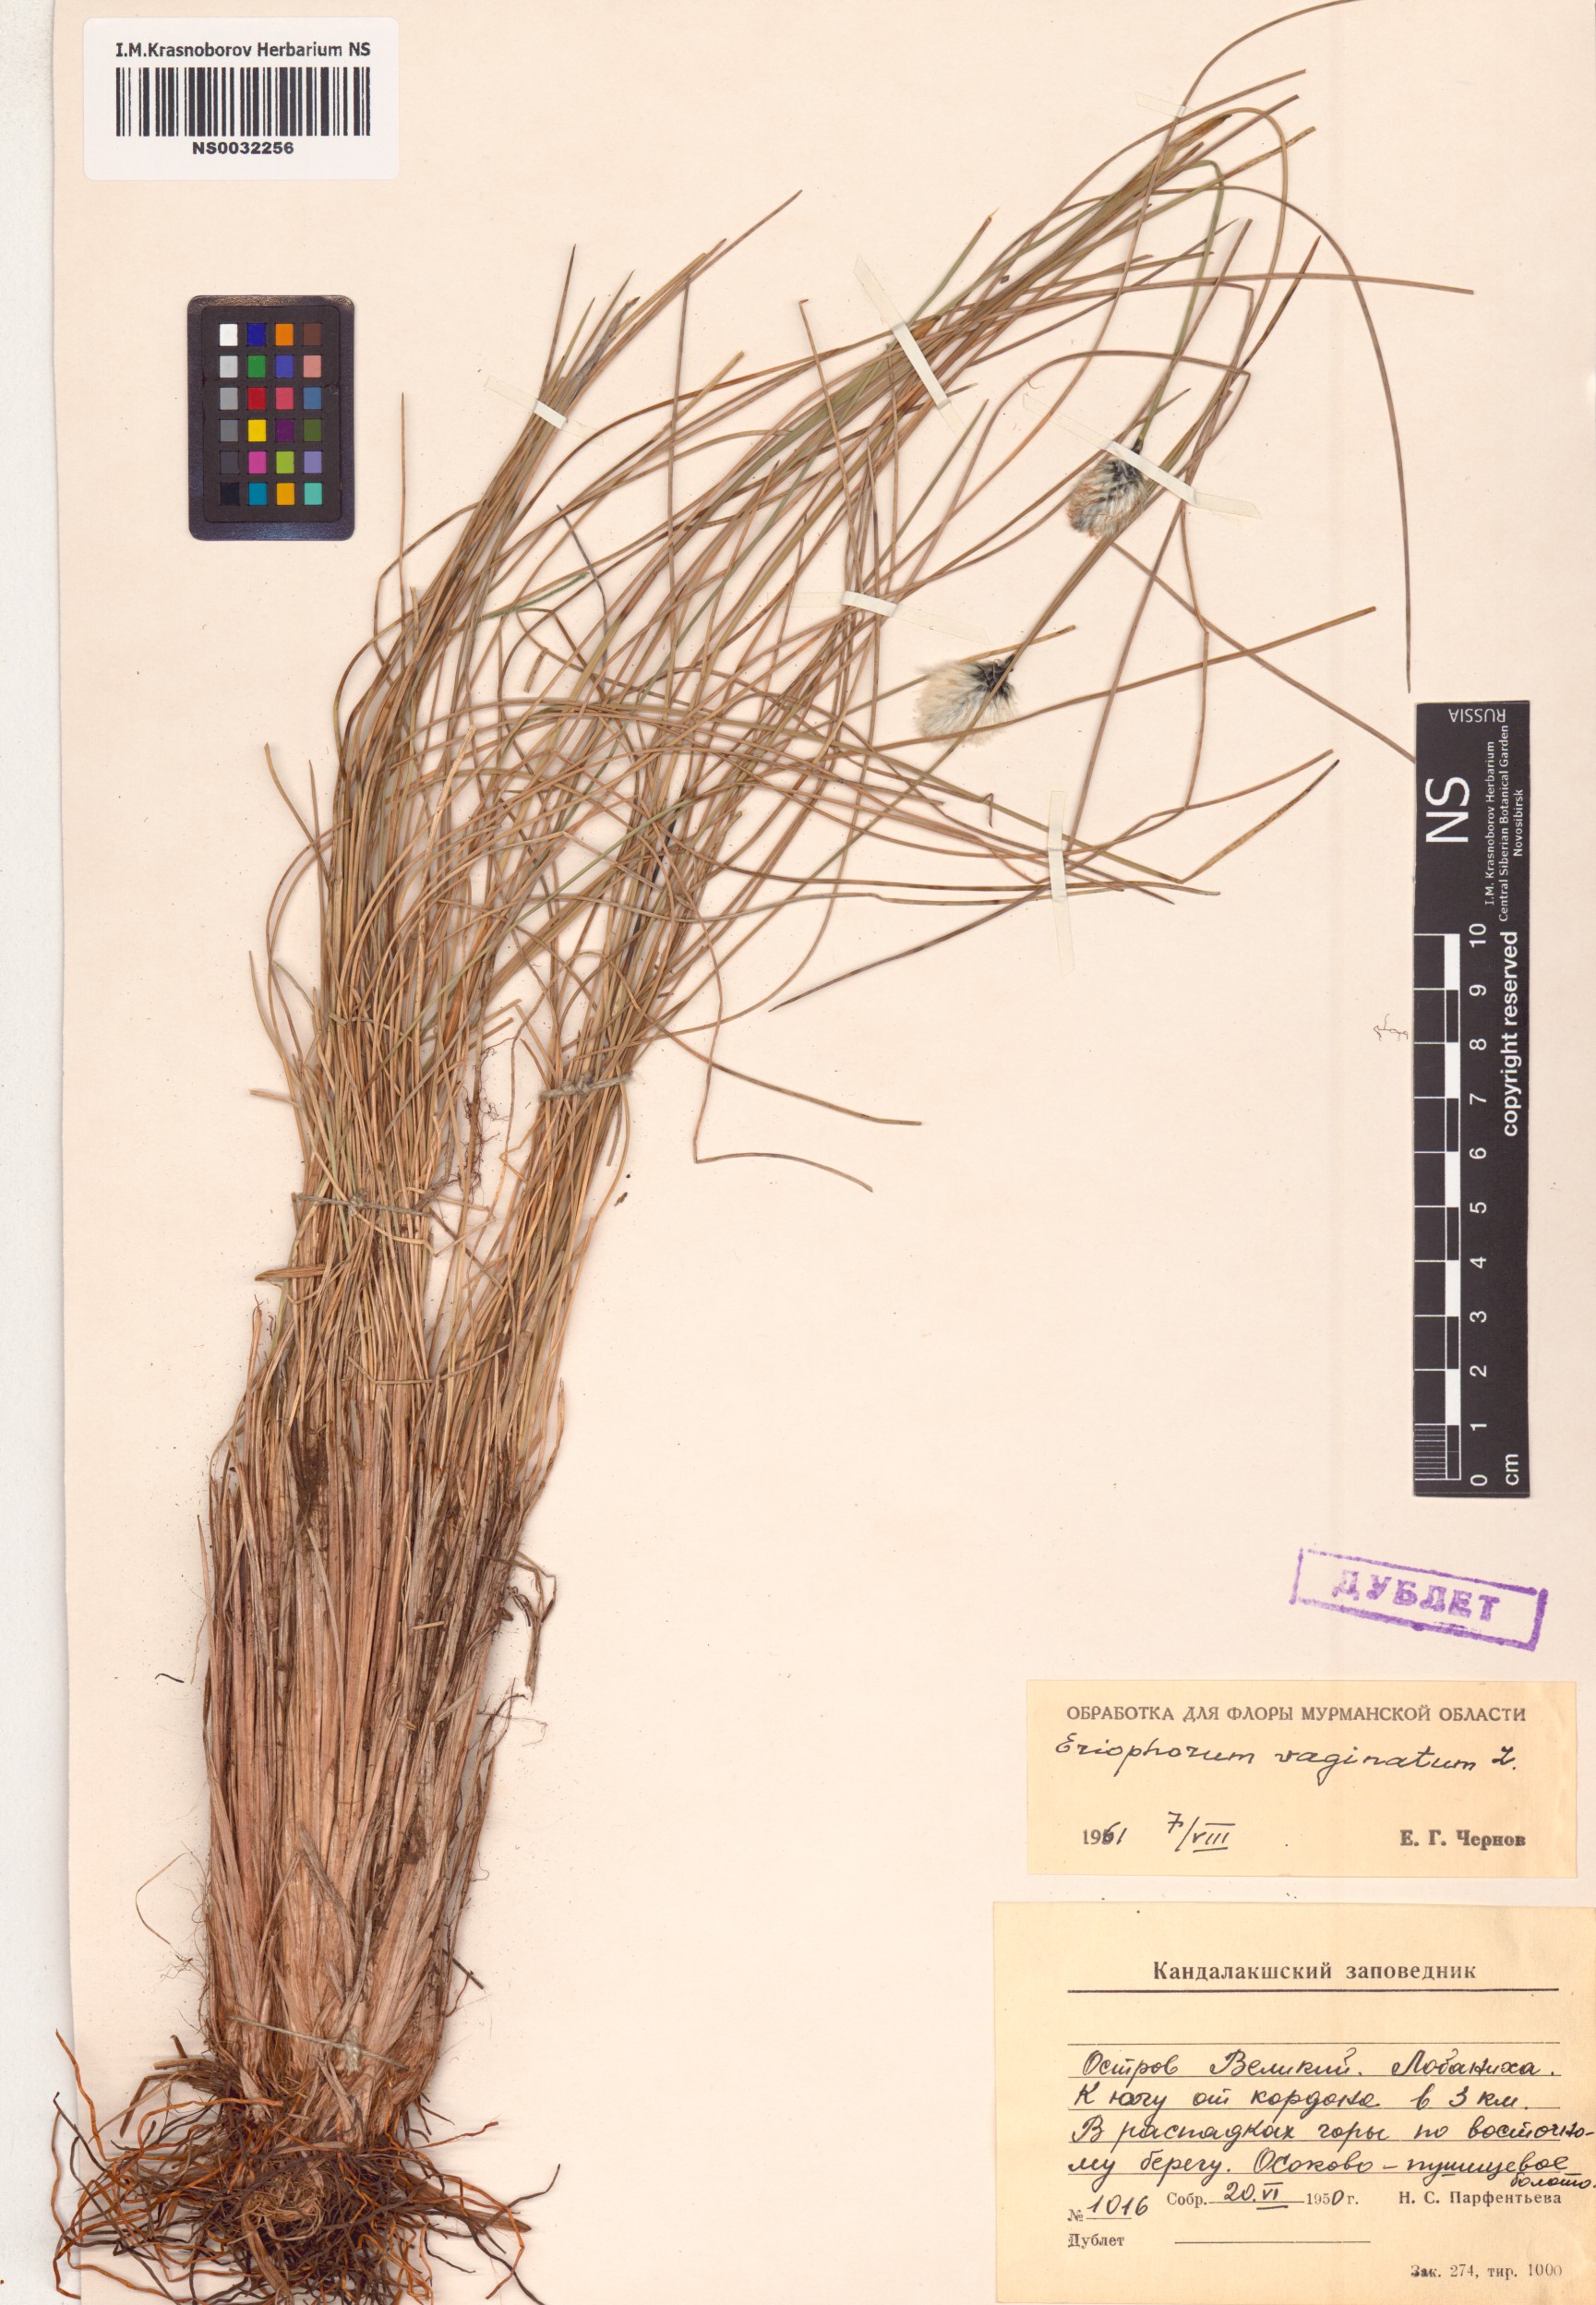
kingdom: Plantae
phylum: Tracheophyta
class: Liliopsida
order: Poales
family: Cyperaceae
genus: Eriophorum
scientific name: Eriophorum vaginatum
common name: Hare's-tail cottongrass
